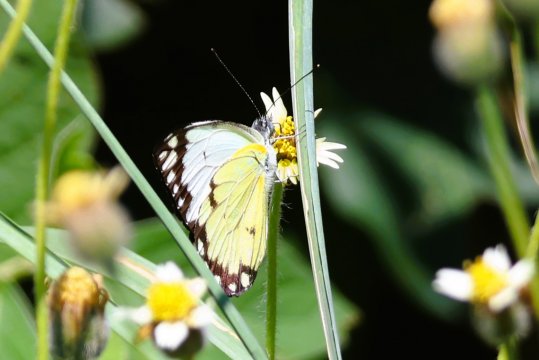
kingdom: Animalia
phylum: Arthropoda
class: Insecta
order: Lepidoptera
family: Pieridae
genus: Belenois
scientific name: Belenois creona
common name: African Caper
